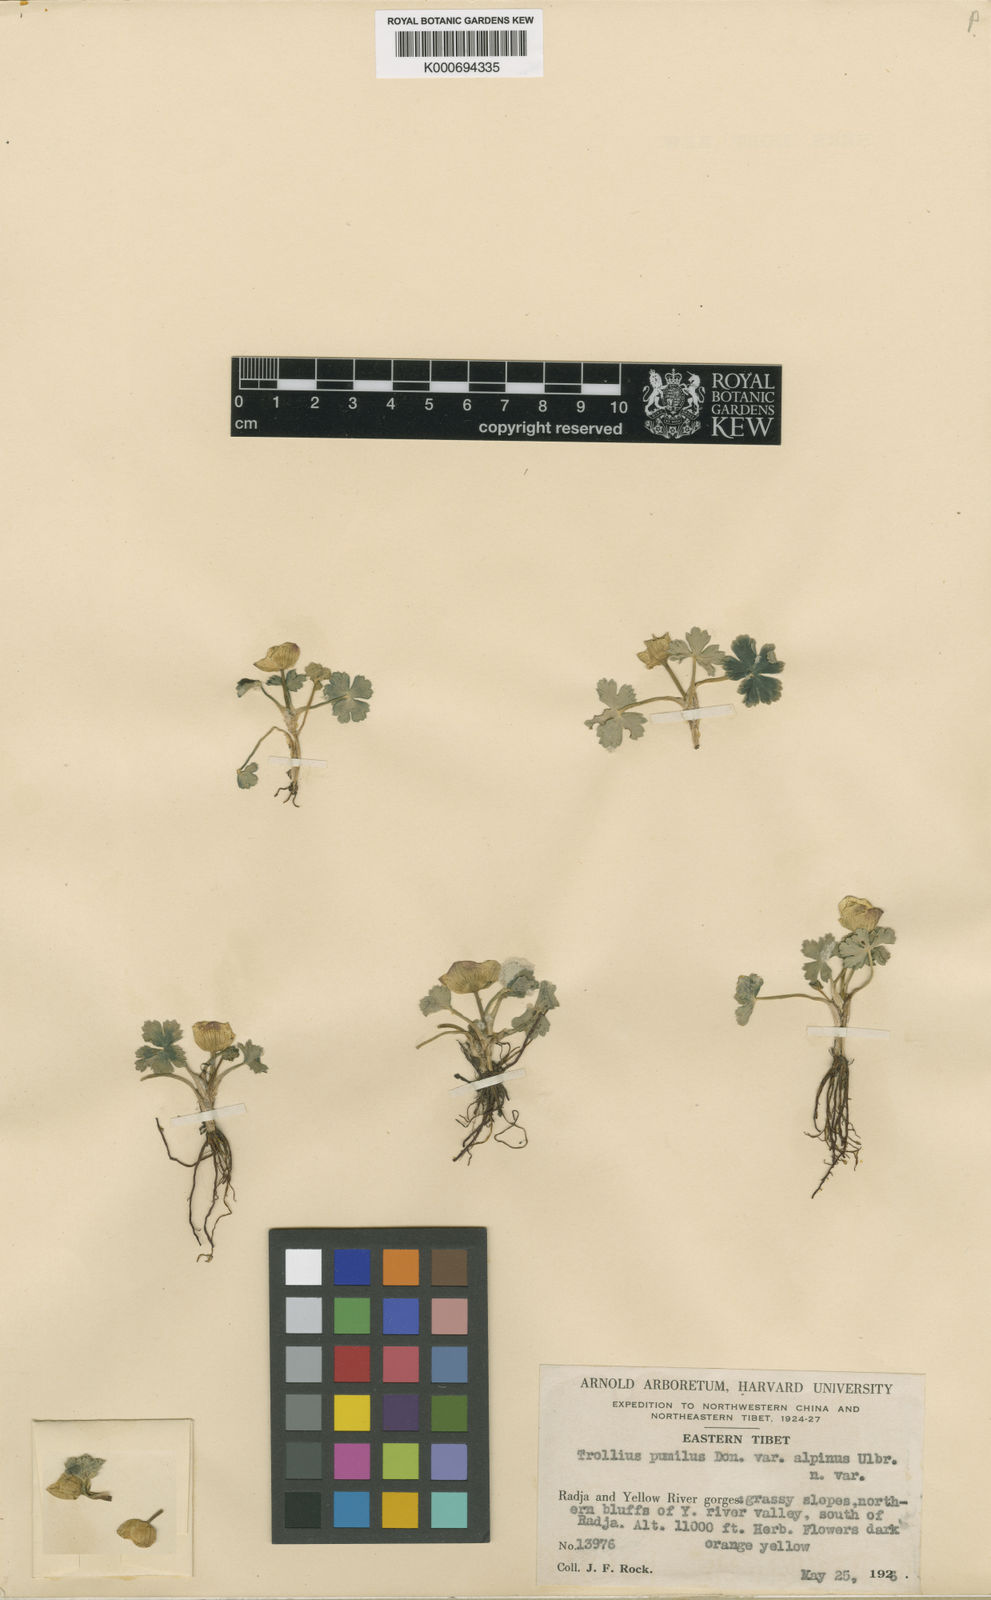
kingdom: Plantae
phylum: Tracheophyta
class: Magnoliopsida
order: Ranunculales
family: Ranunculaceae
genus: Trollius
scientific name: Trollius pumilus
